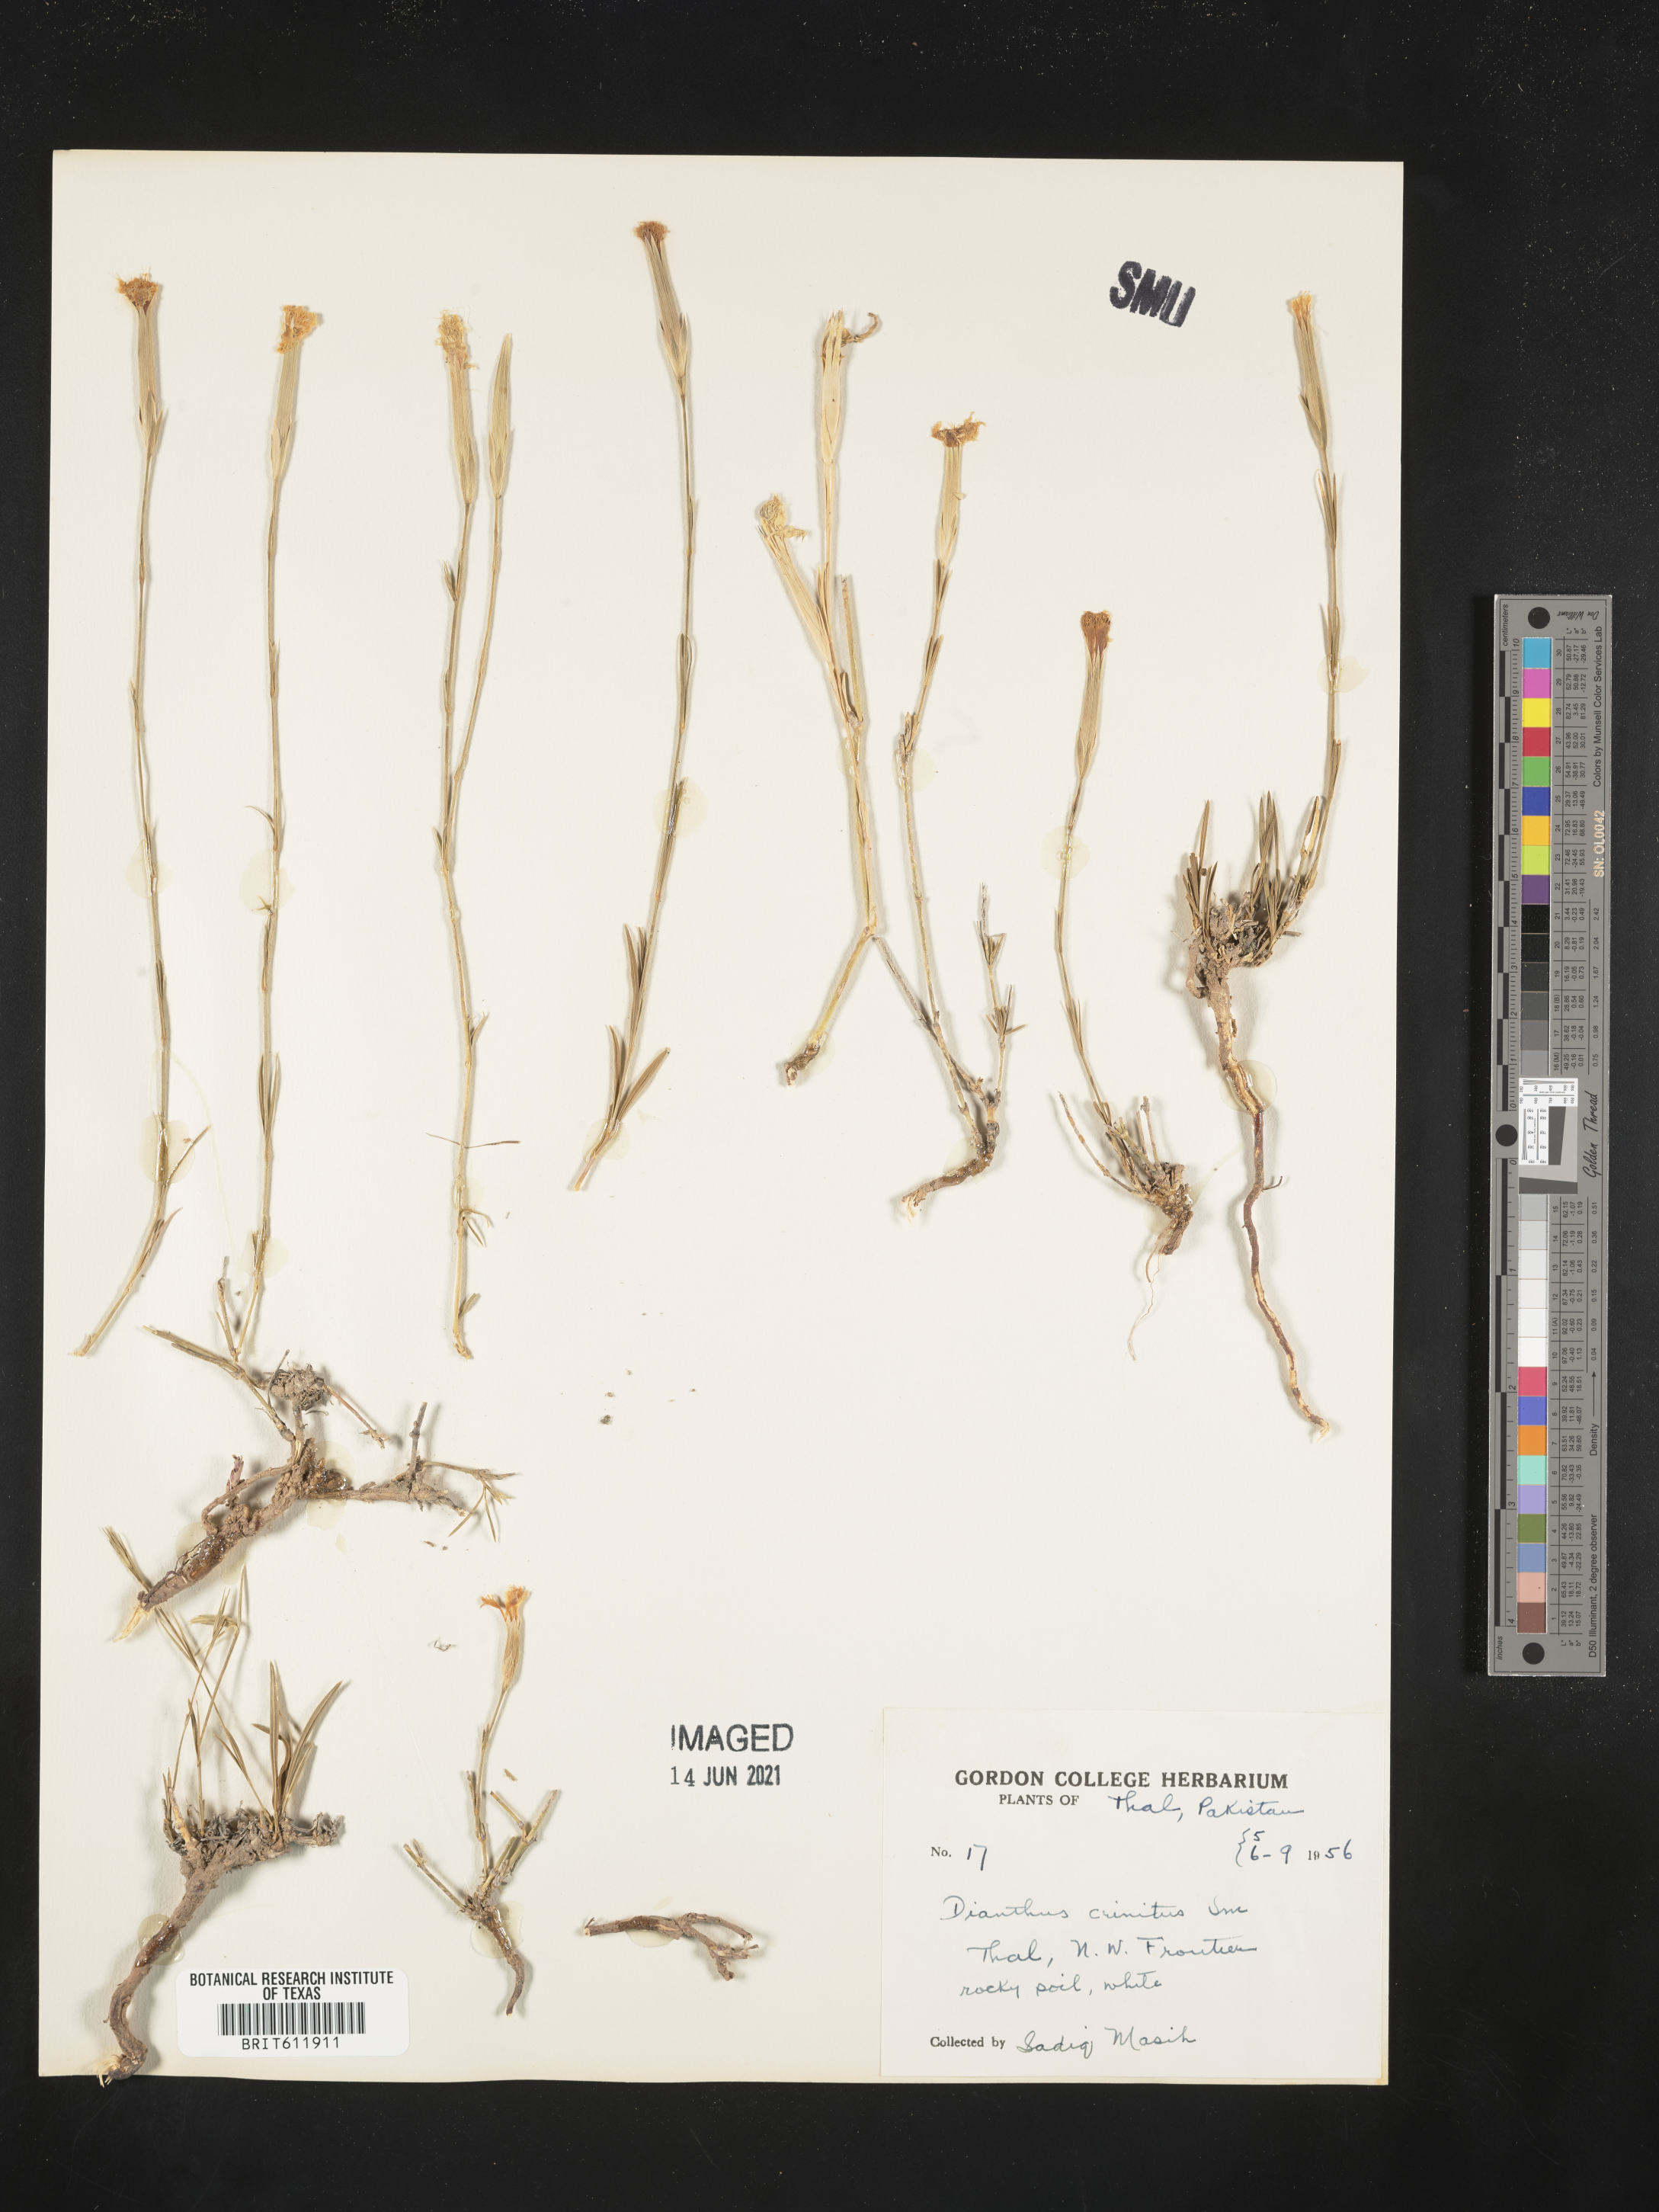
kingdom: Plantae
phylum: Tracheophyta
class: Magnoliopsida
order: Caryophyllales
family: Caryophyllaceae
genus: Dianthus
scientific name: Dianthus crinitus
